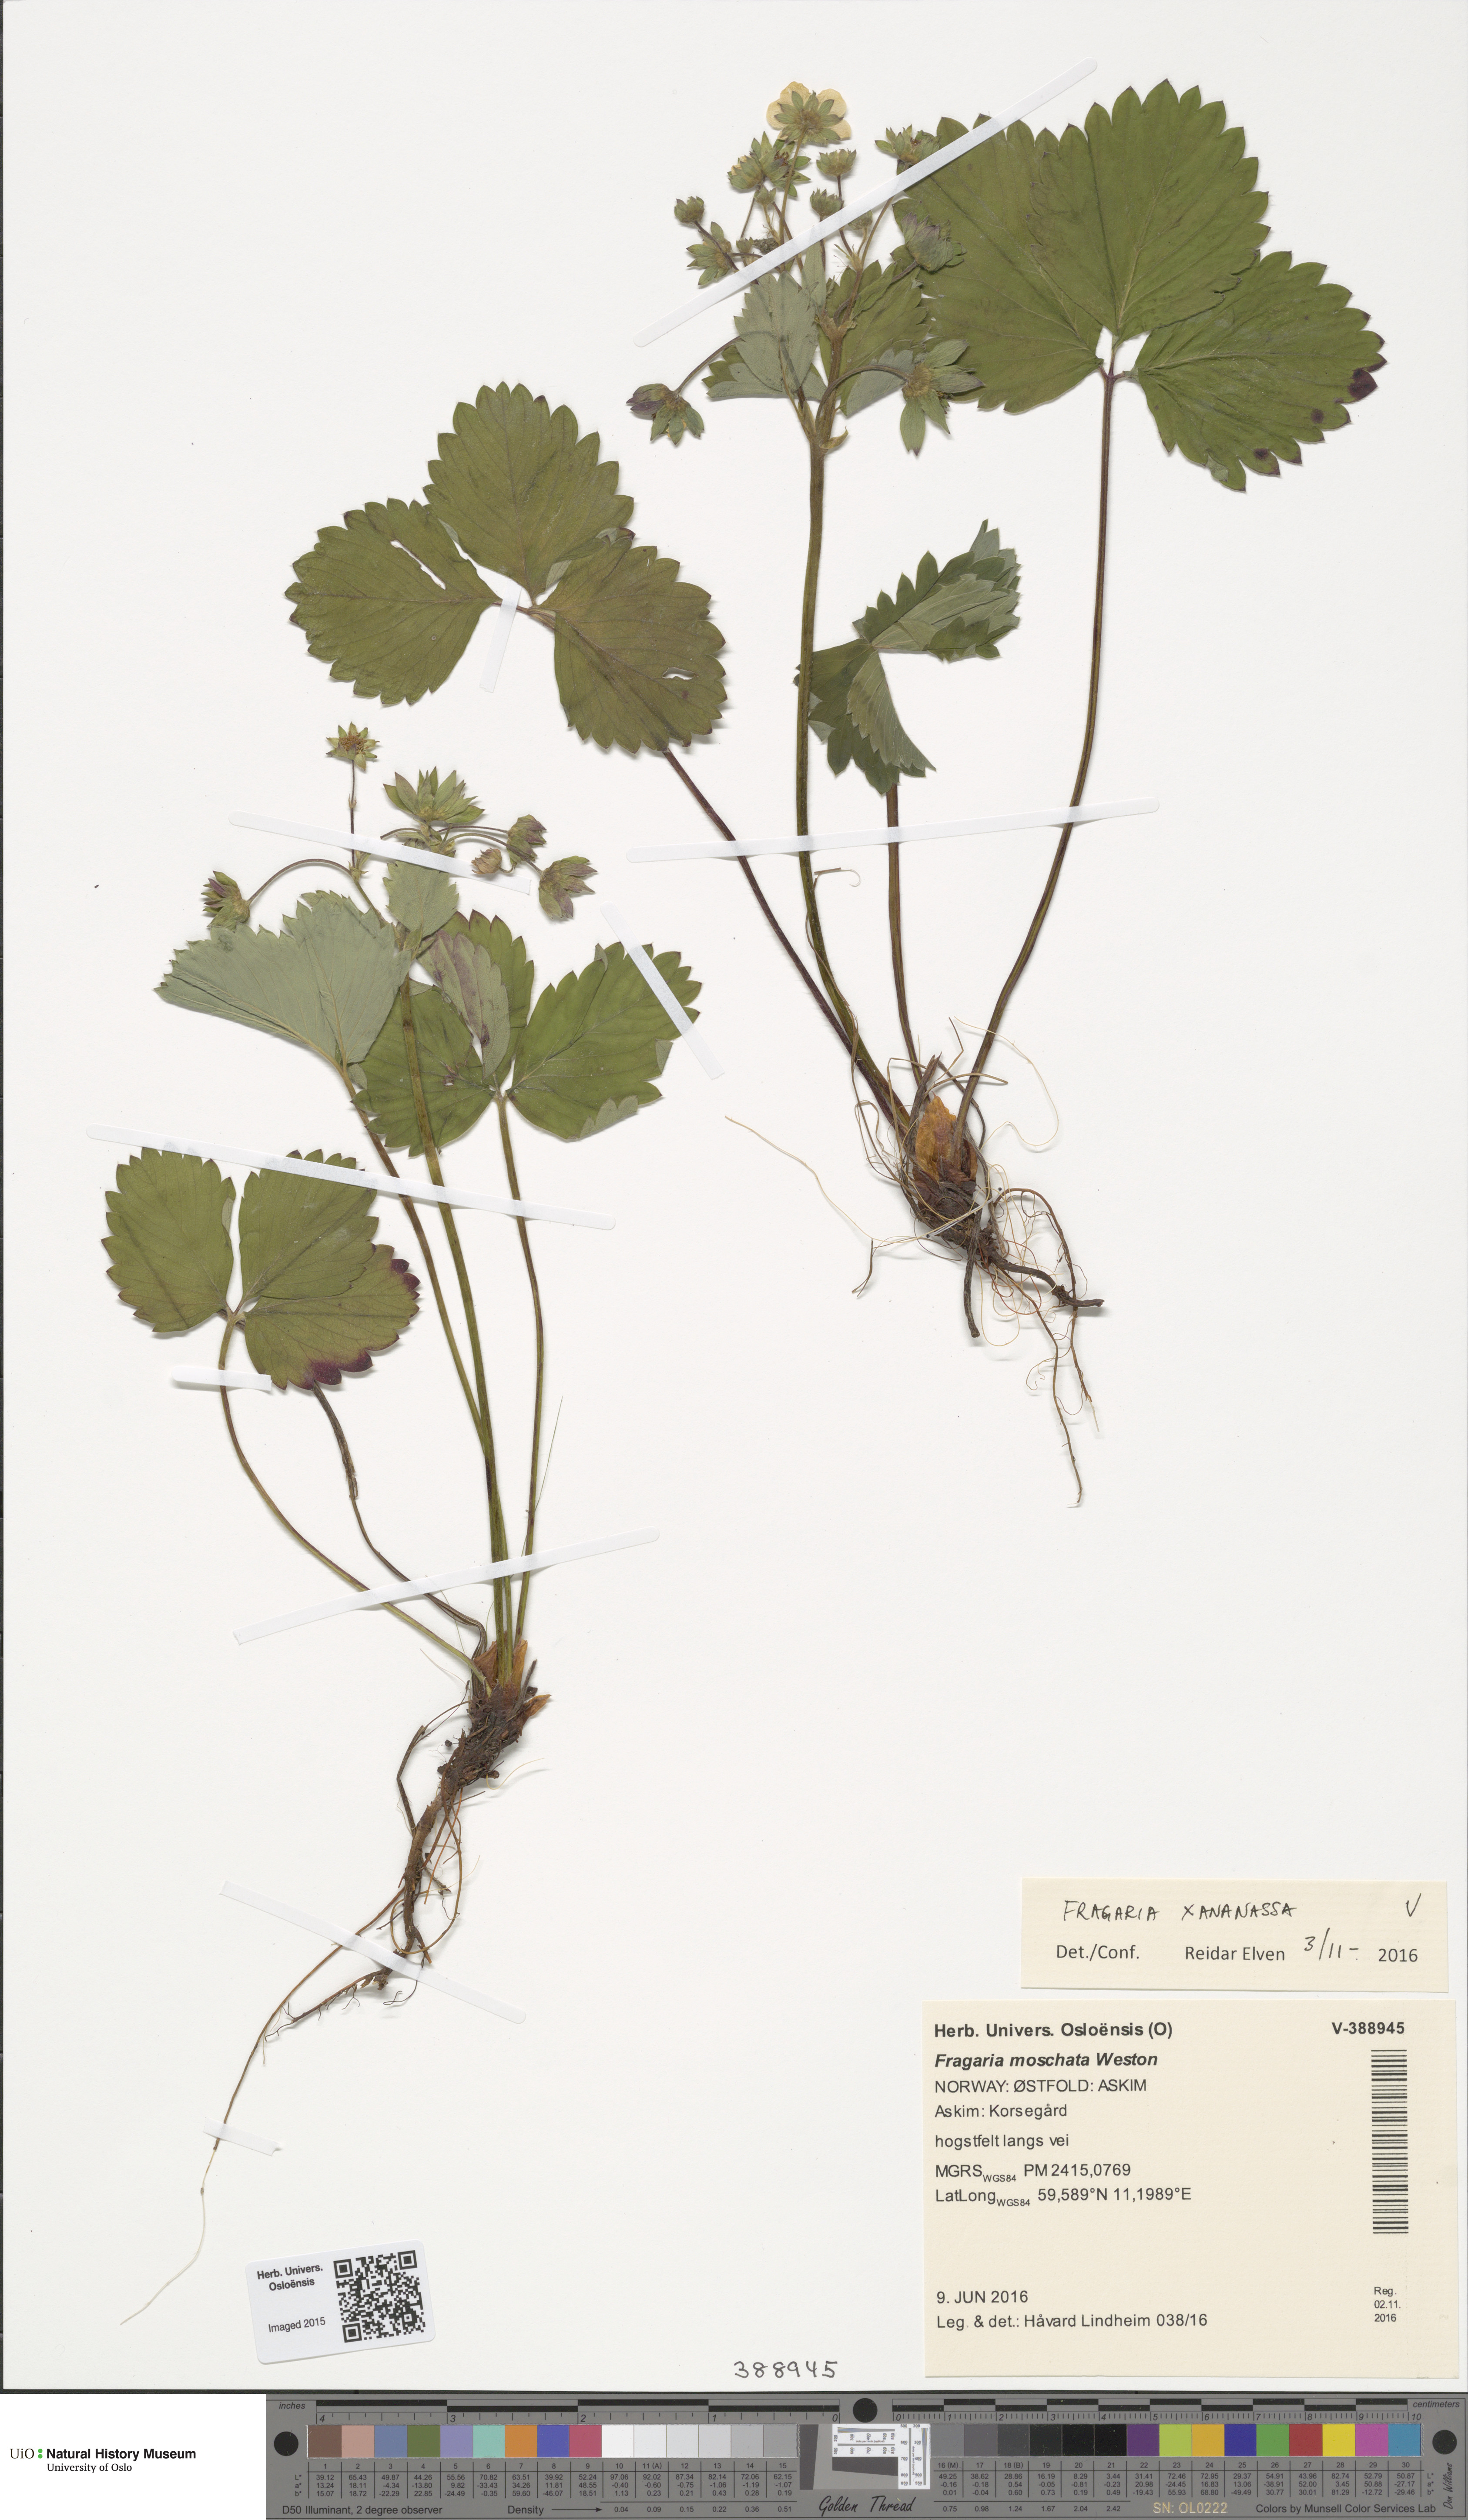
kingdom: Plantae
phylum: Tracheophyta
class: Magnoliopsida
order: Rosales
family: Rosaceae
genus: Fragaria
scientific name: Fragaria ananassa
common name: Garden strawberry
